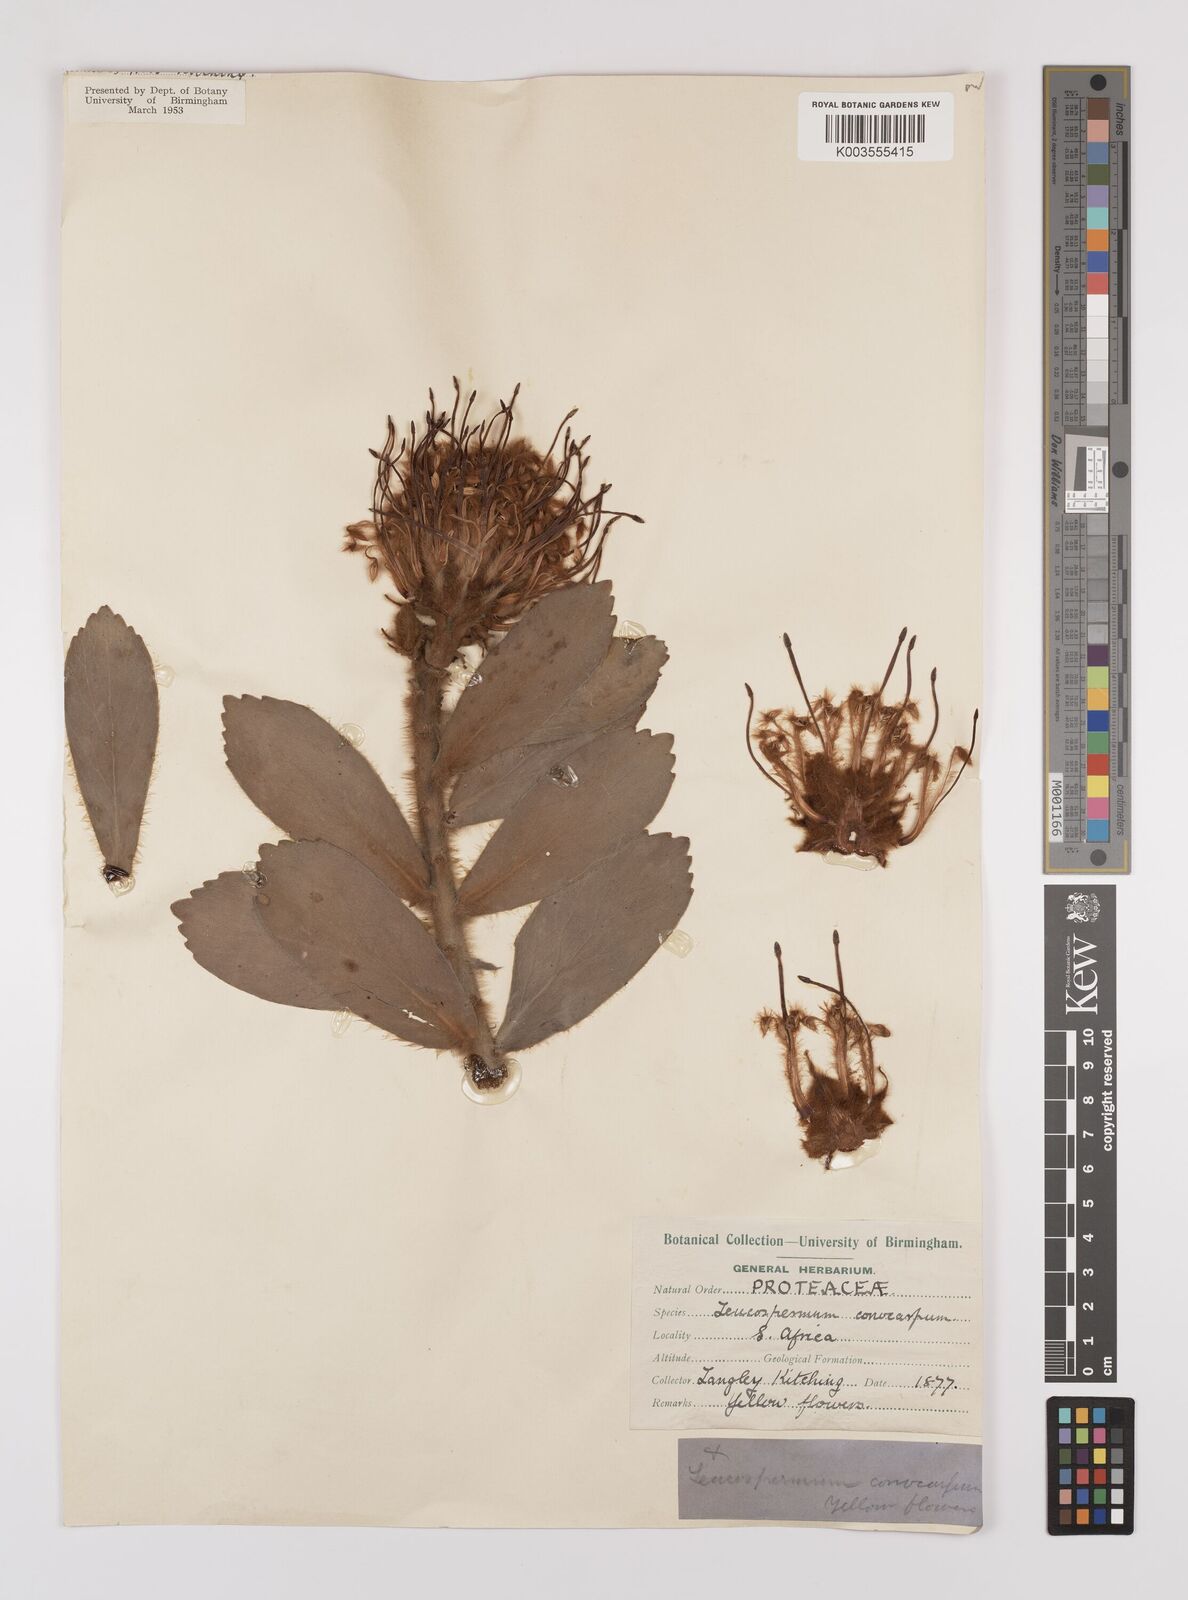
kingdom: Plantae
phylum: Tracheophyta
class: Magnoliopsida
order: Proteales
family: Proteaceae
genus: Leucospermum
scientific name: Leucospermum conocarpodendron
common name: Tree pincushion
